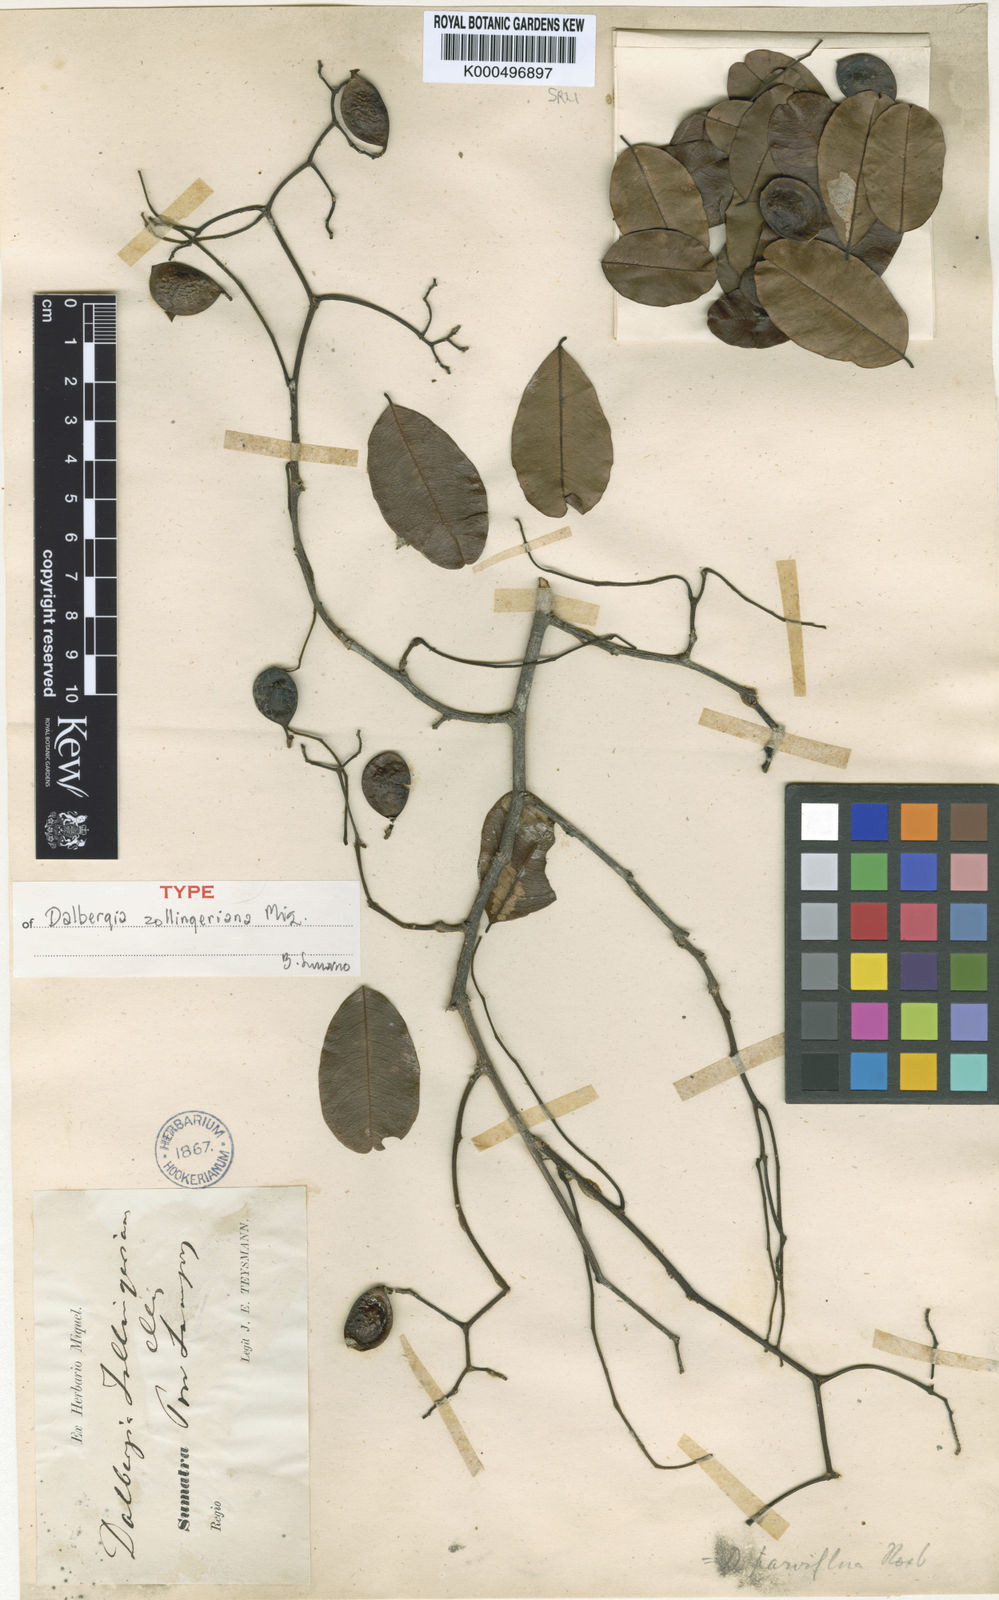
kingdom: Plantae
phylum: Tracheophyta
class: Magnoliopsida
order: Fabales
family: Fabaceae
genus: Dalbergia
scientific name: Dalbergia parviflora
